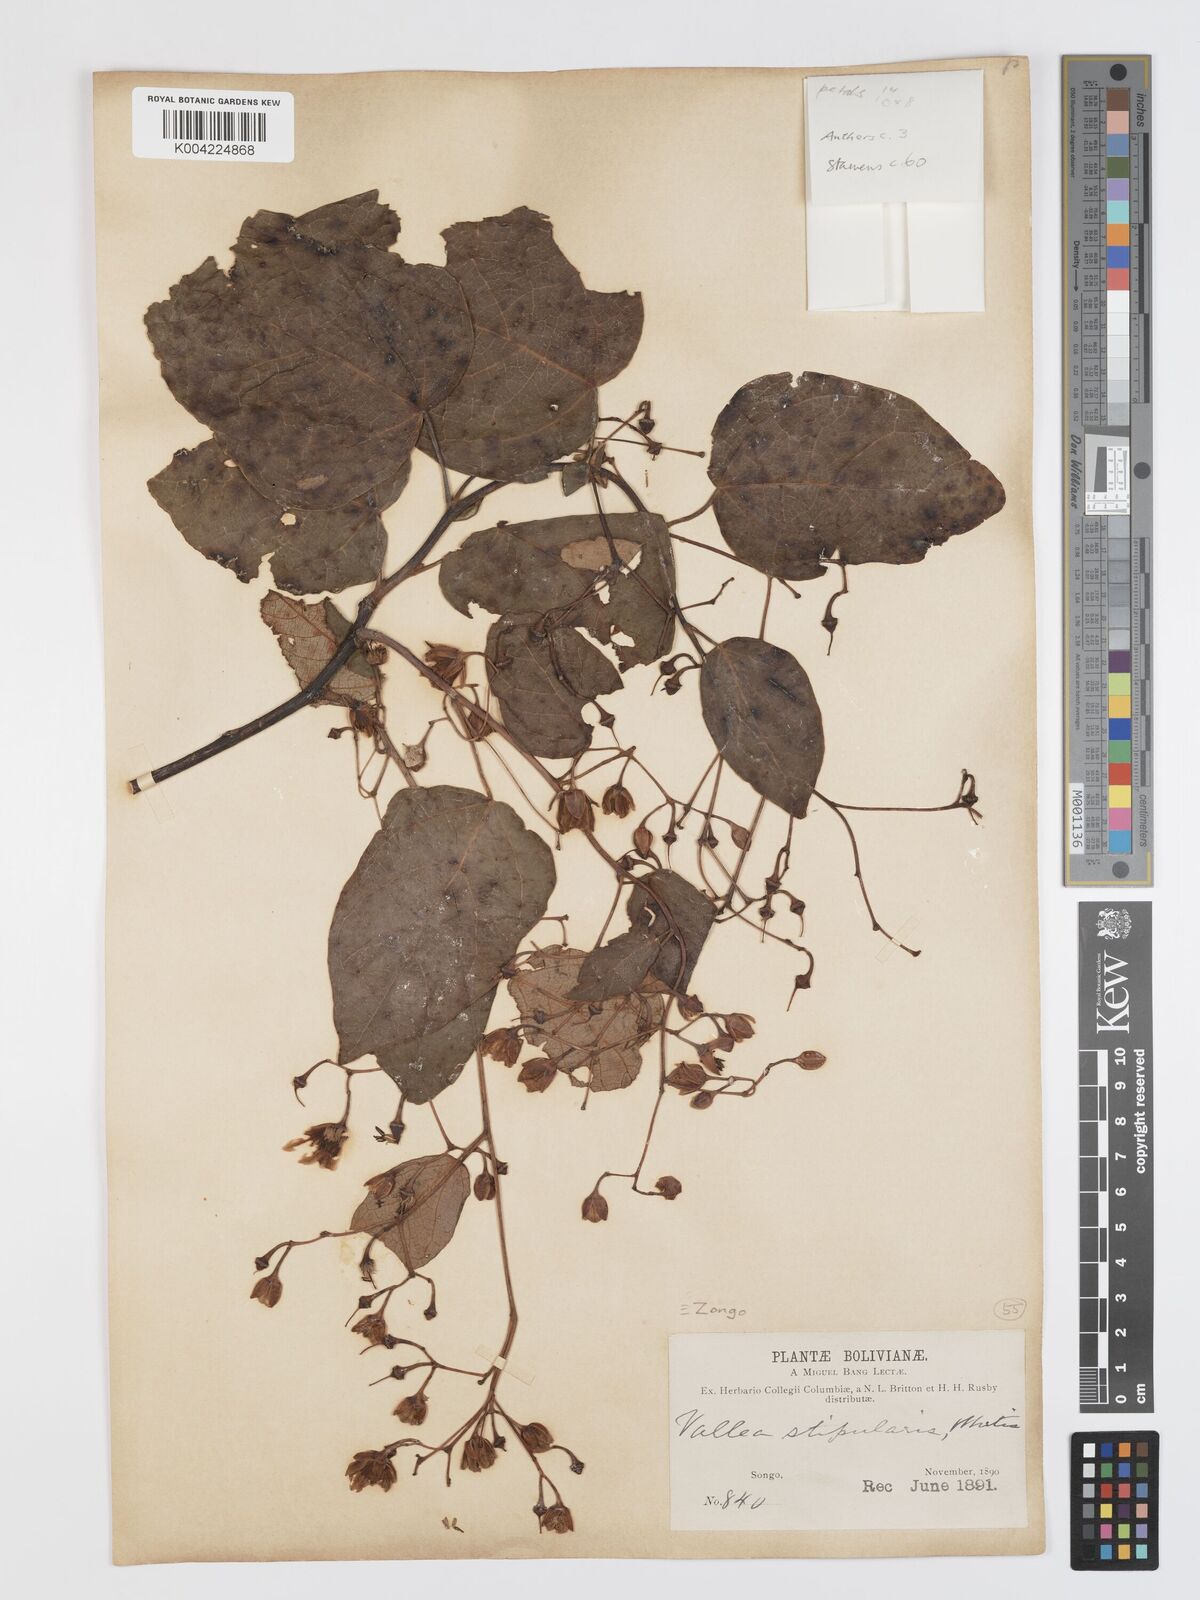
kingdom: Plantae
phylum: Tracheophyta
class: Magnoliopsida
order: Oxalidales
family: Elaeocarpaceae
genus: Vallea
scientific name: Vallea stipularis
